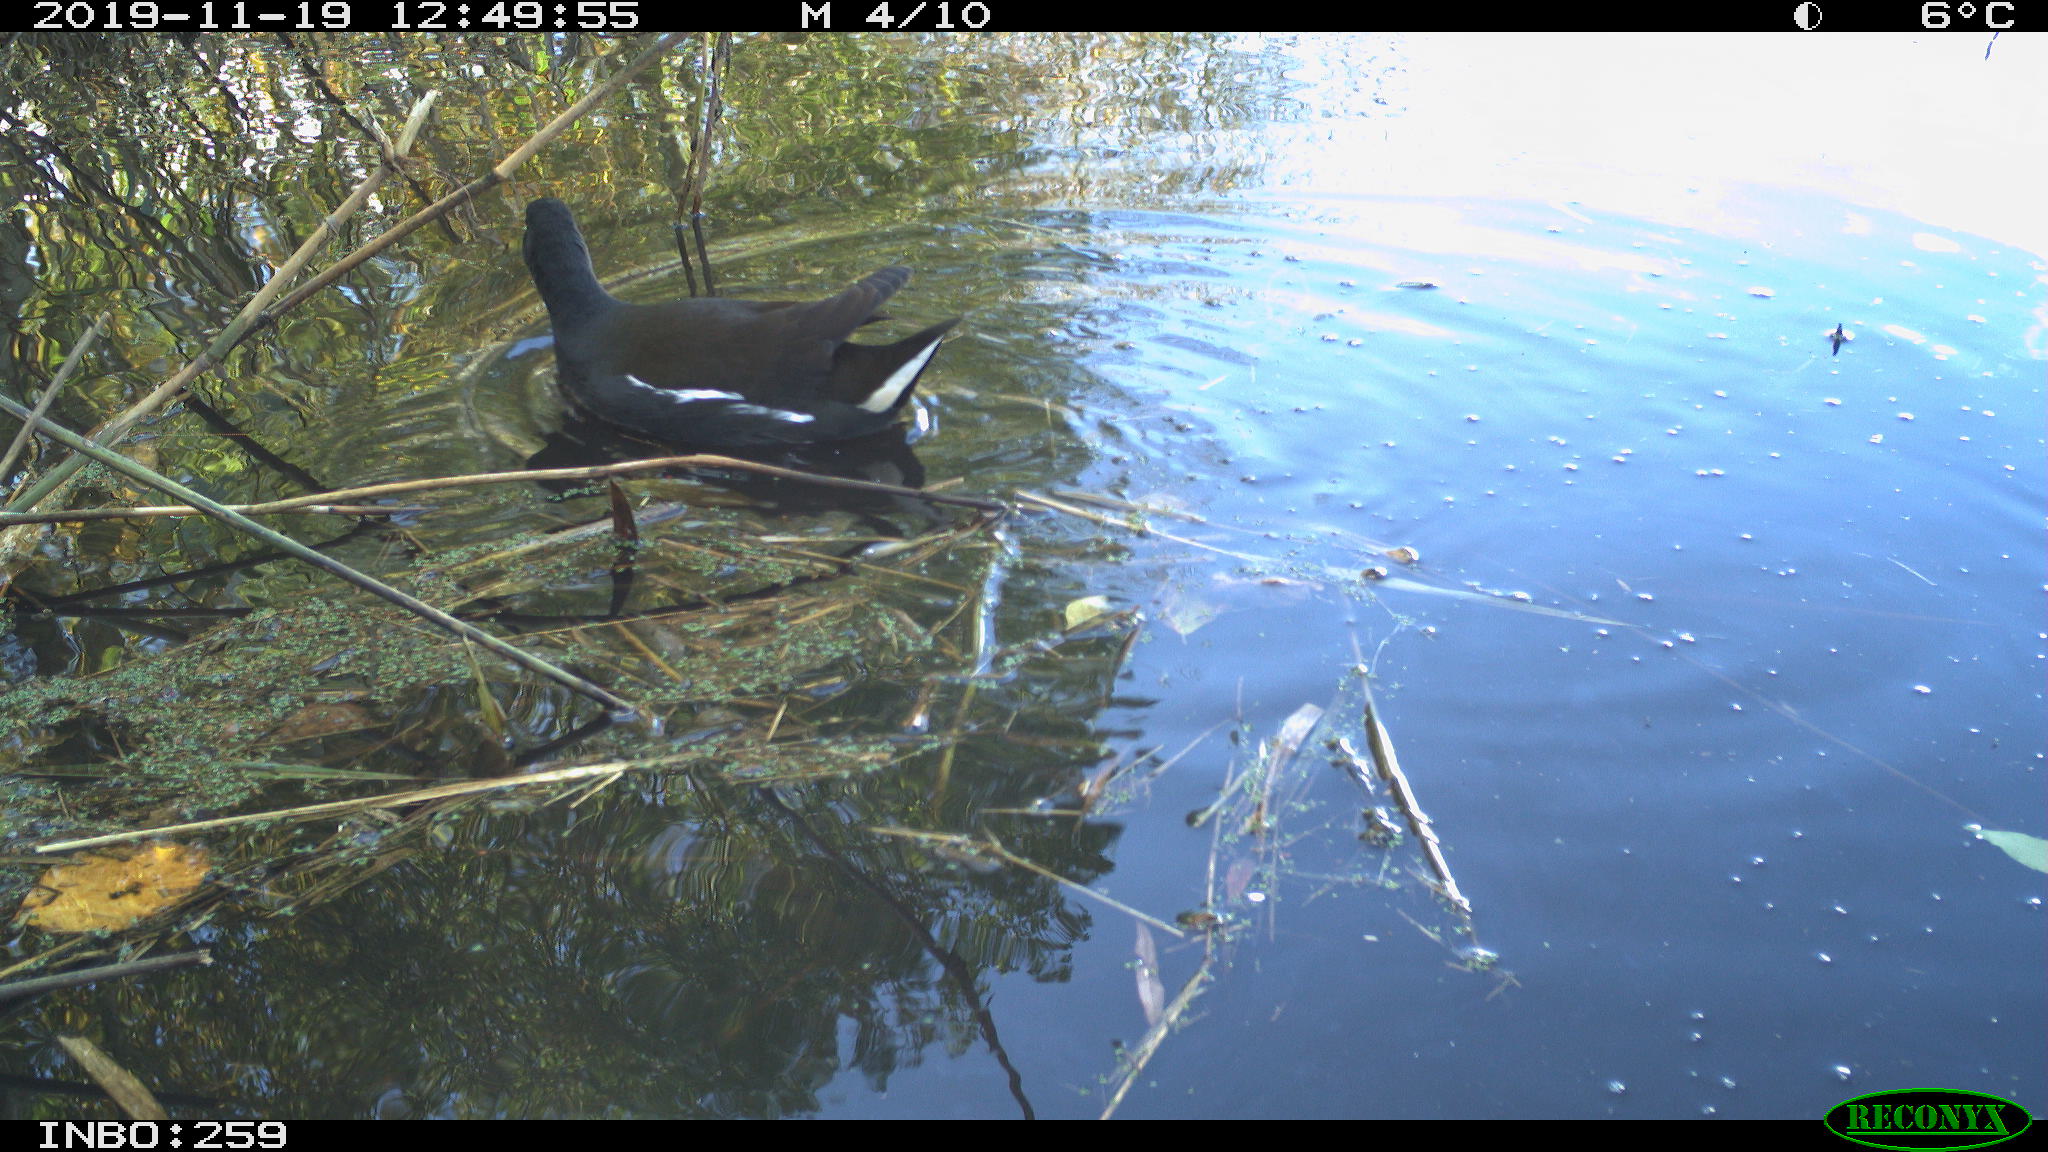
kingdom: Animalia
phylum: Chordata
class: Aves
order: Gruiformes
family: Rallidae
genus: Gallinula
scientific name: Gallinula chloropus
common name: Common moorhen
